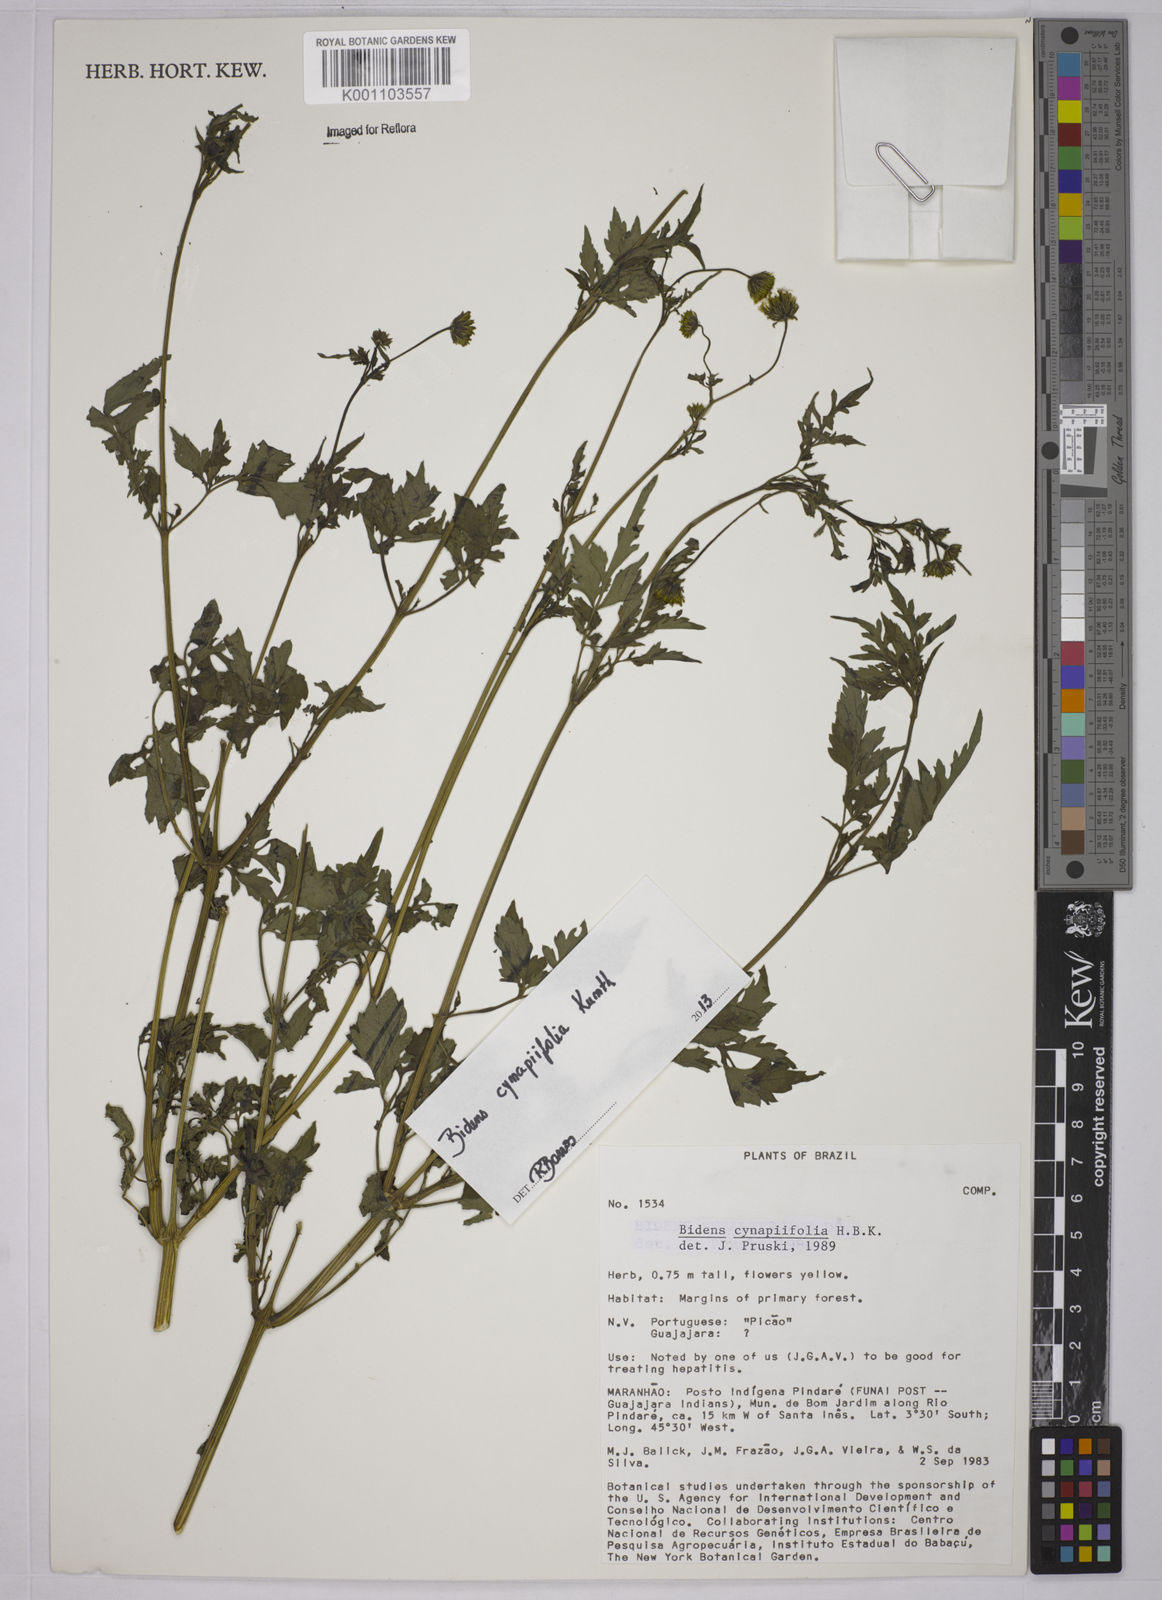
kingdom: Plantae
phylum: Tracheophyta
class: Magnoliopsida
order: Asterales
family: Asteraceae
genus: Bidens
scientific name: Bidens cynapiifolia
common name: Beggar's tick
